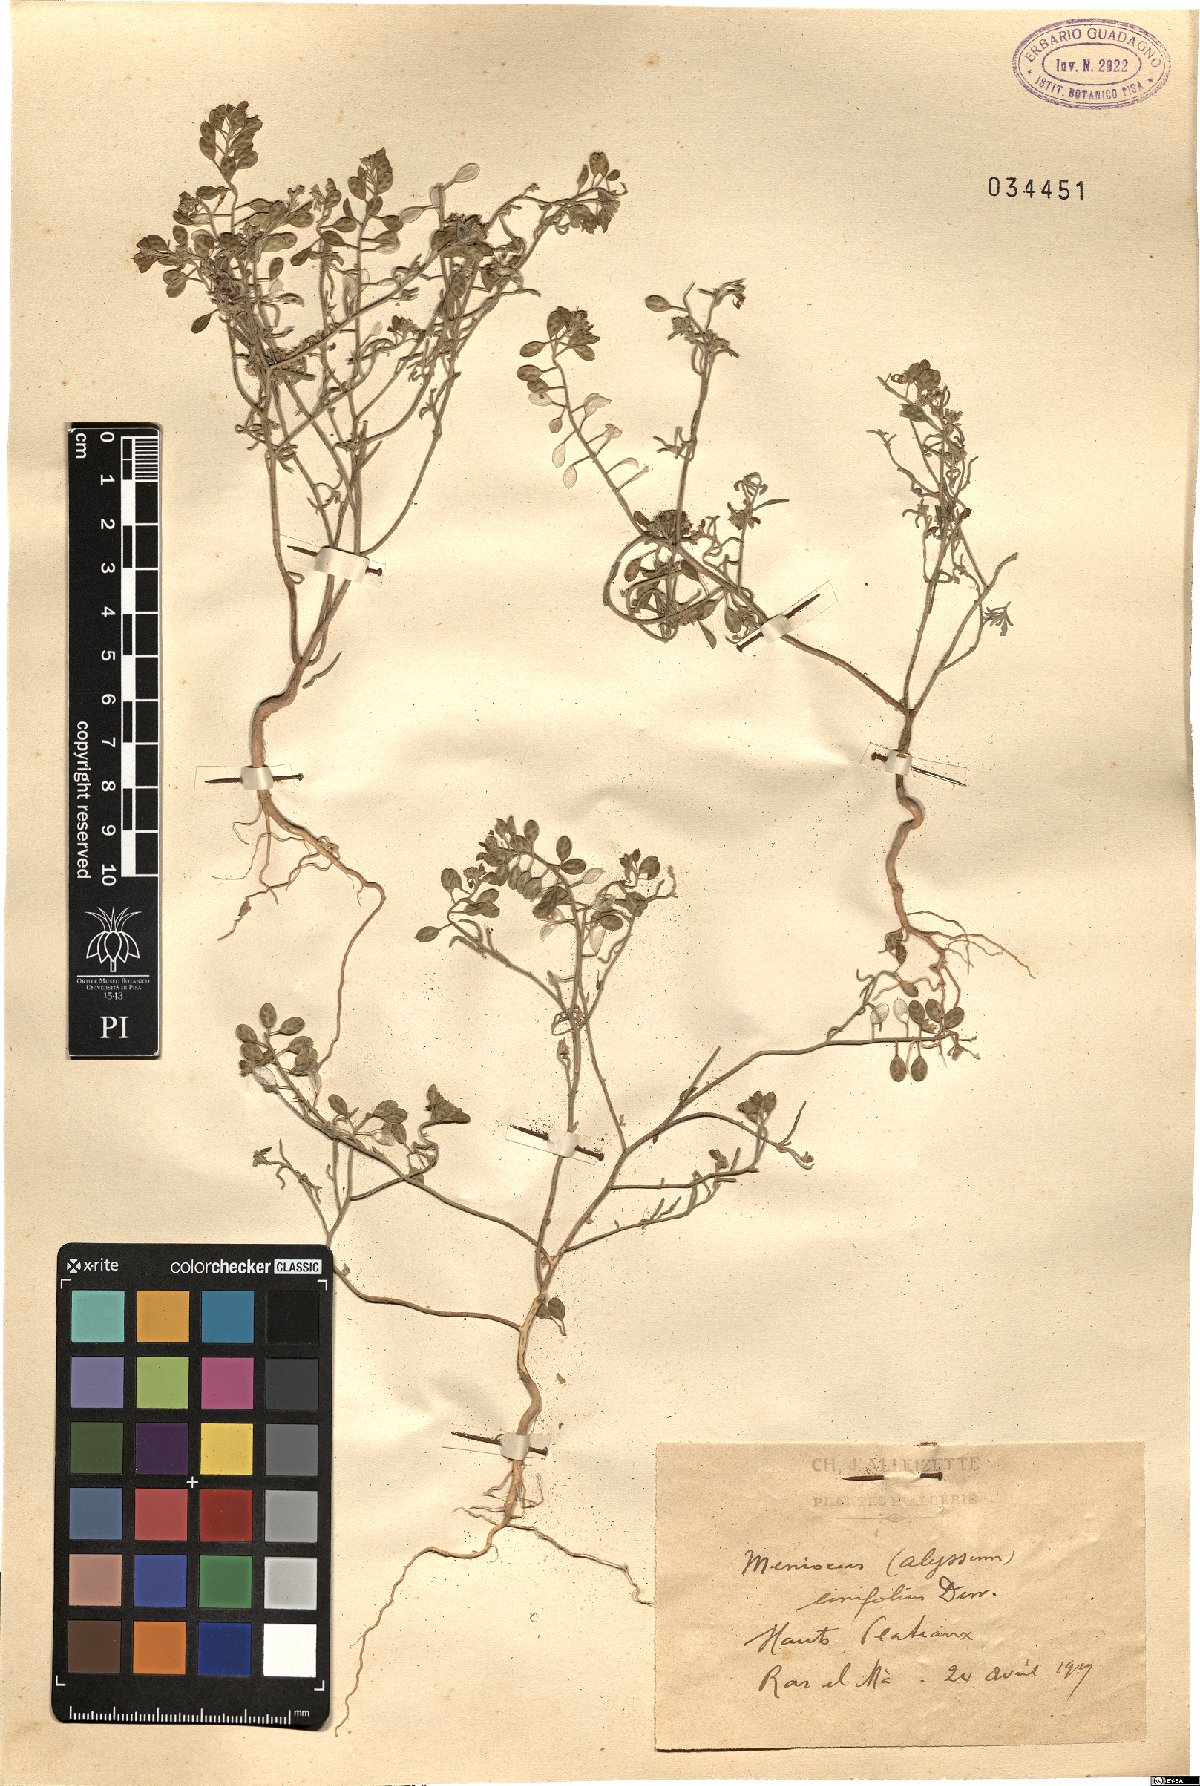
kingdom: Plantae
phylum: Tracheophyta
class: Magnoliopsida
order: Brassicales
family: Brassicaceae
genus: Meniocus
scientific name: Meniocus linifolius
